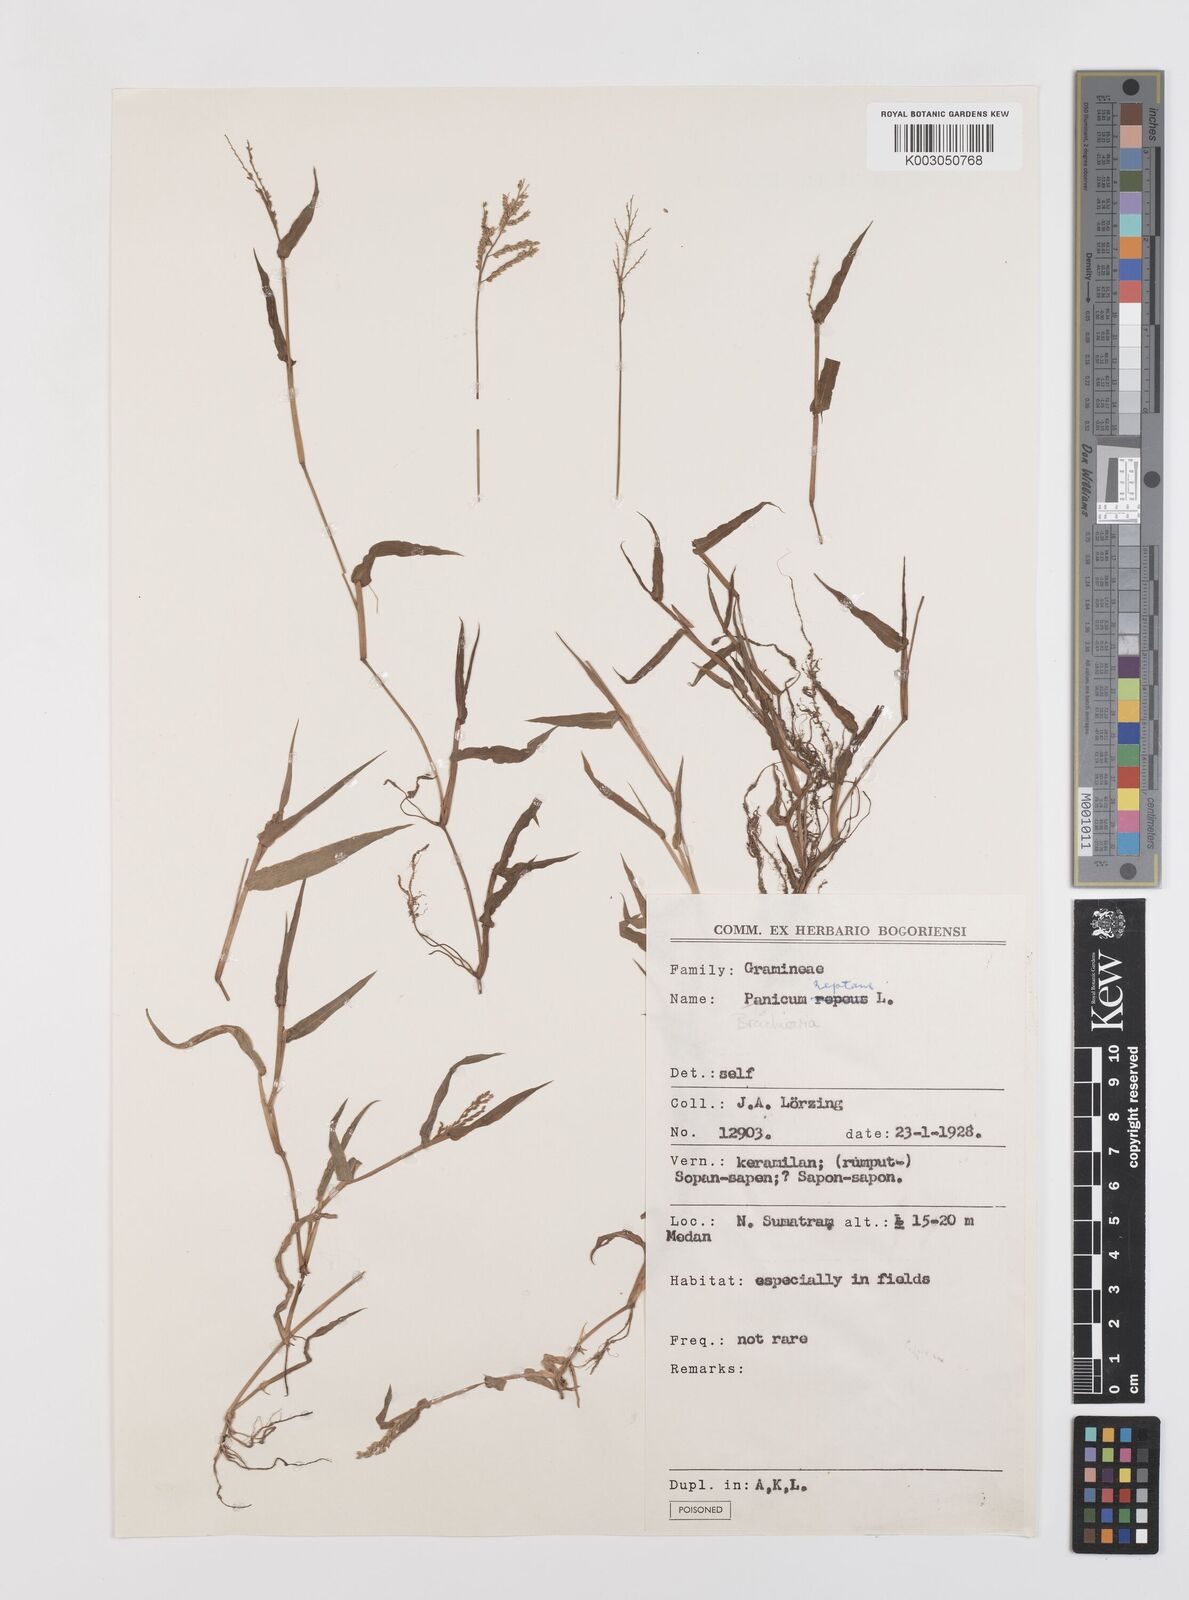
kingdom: Plantae
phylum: Tracheophyta
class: Liliopsida
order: Poales
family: Poaceae
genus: Urochloa
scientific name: Urochloa reptans
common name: Sprawling signalgrass
